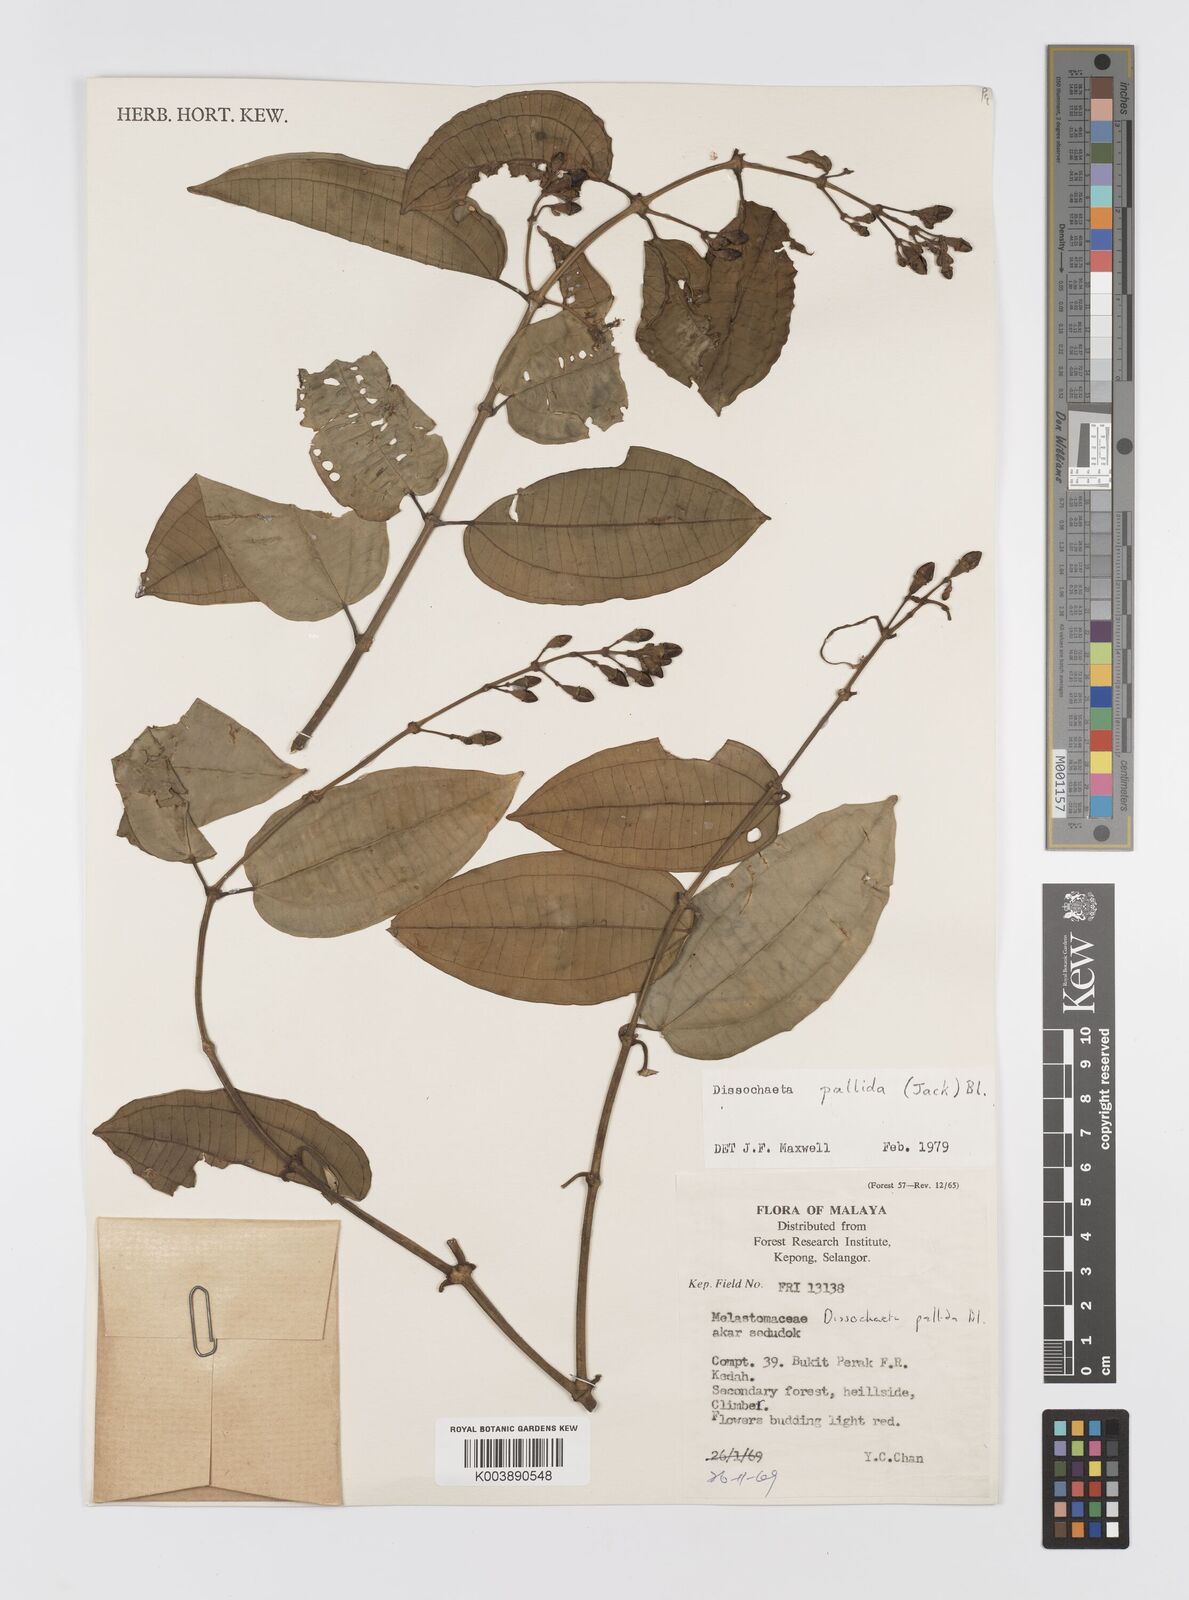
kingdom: Plantae
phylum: Tracheophyta
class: Magnoliopsida
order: Myrtales
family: Melastomataceae
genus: Dissochaeta
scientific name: Dissochaeta pallida
